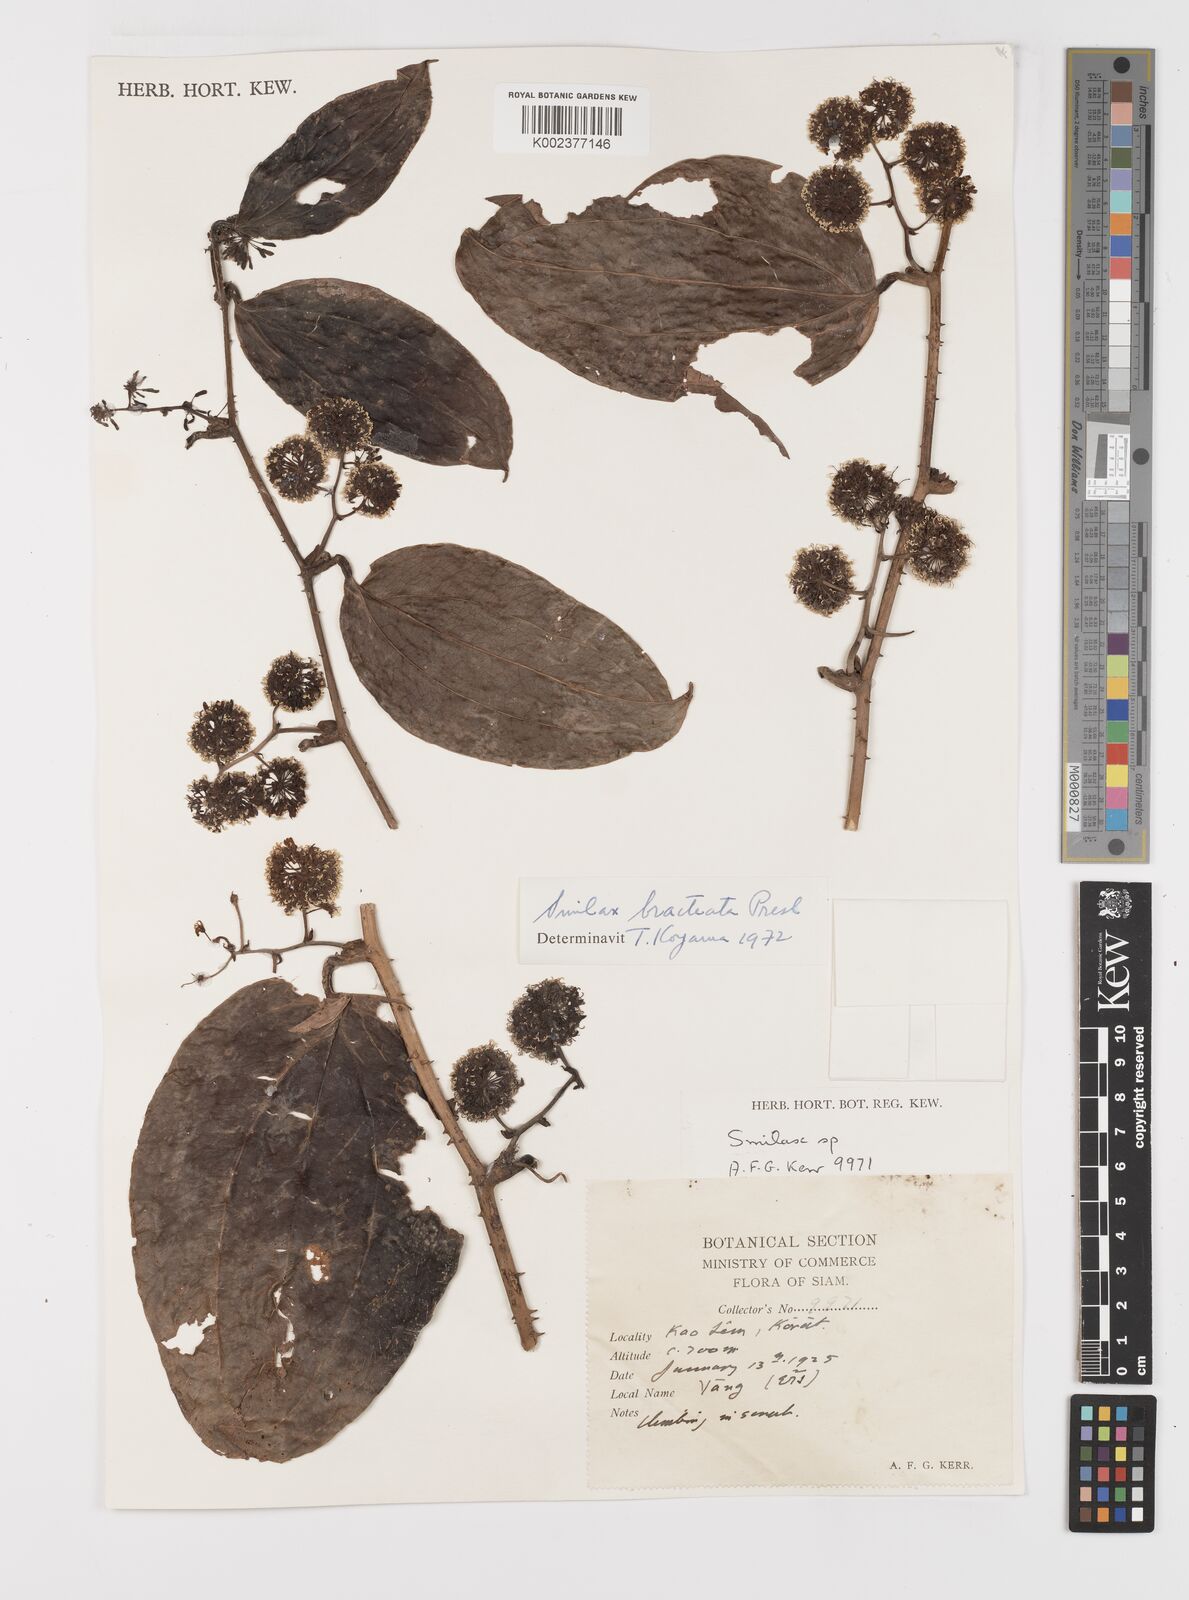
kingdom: Plantae
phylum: Tracheophyta
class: Liliopsida
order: Liliales
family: Smilacaceae
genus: Smilax
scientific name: Smilax bracteata
